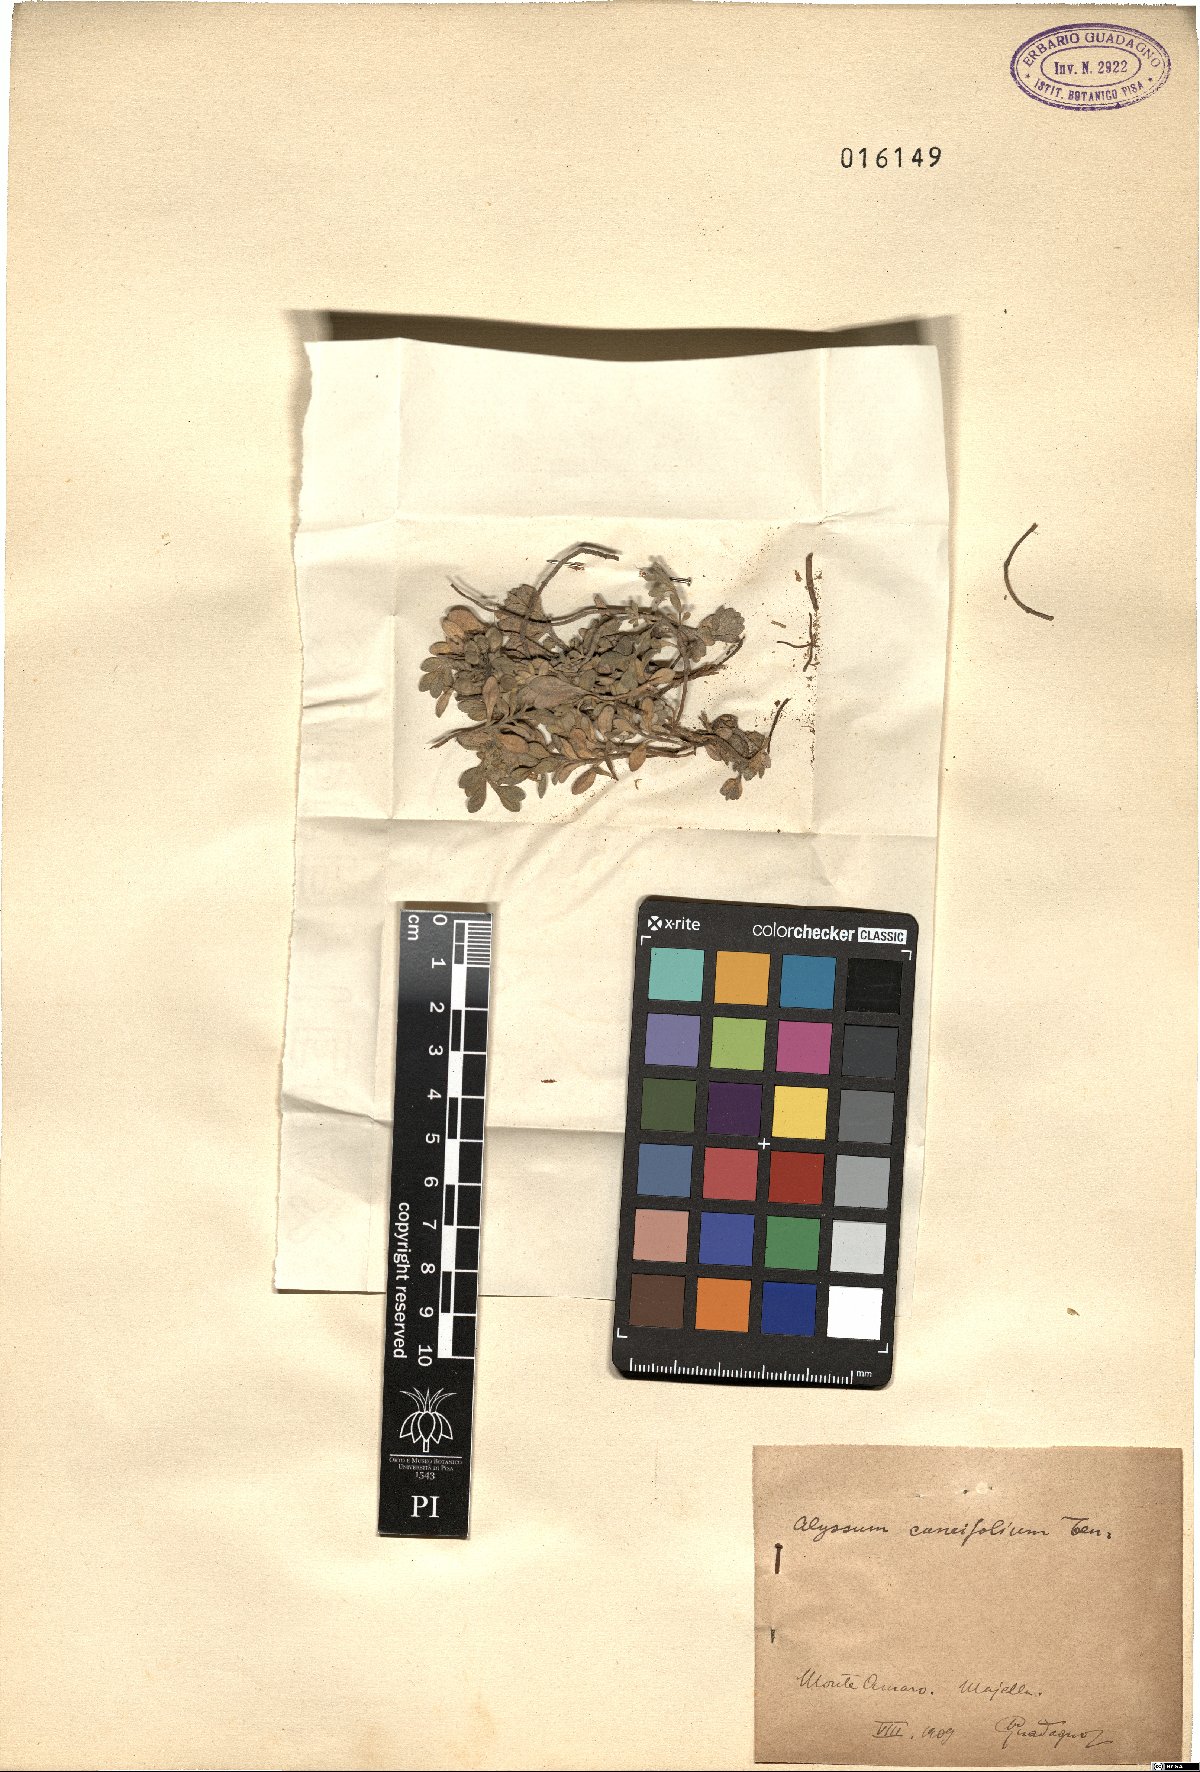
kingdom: Plantae
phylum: Tracheophyta
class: Magnoliopsida
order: Brassicales
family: Brassicaceae
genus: Alyssum
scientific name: Alyssum cuneifolium
